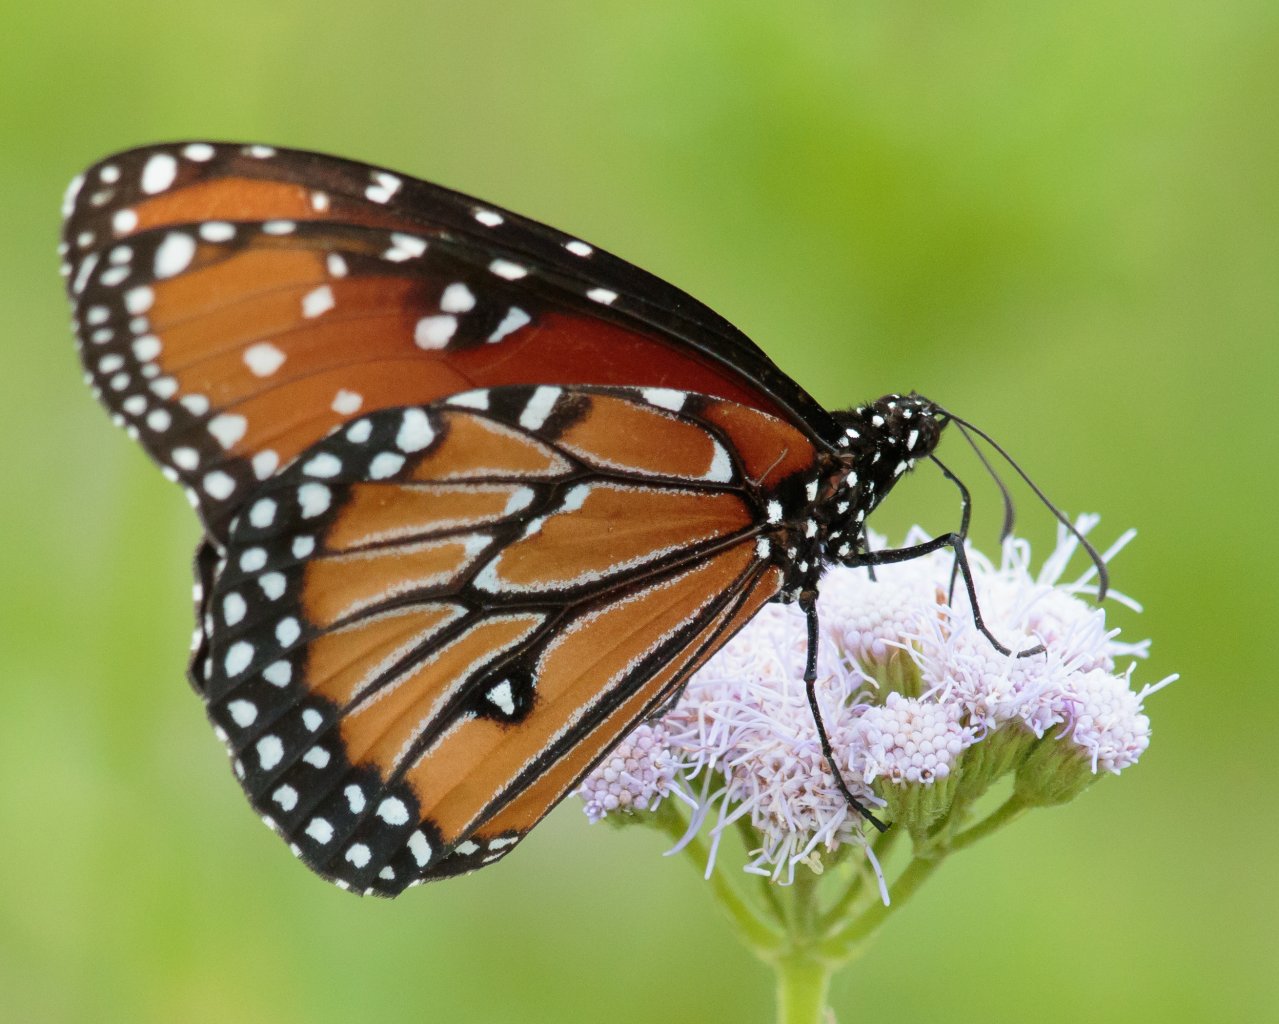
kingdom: Animalia
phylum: Arthropoda
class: Insecta
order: Lepidoptera
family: Nymphalidae
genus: Danaus
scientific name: Danaus gilippus
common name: Queen
